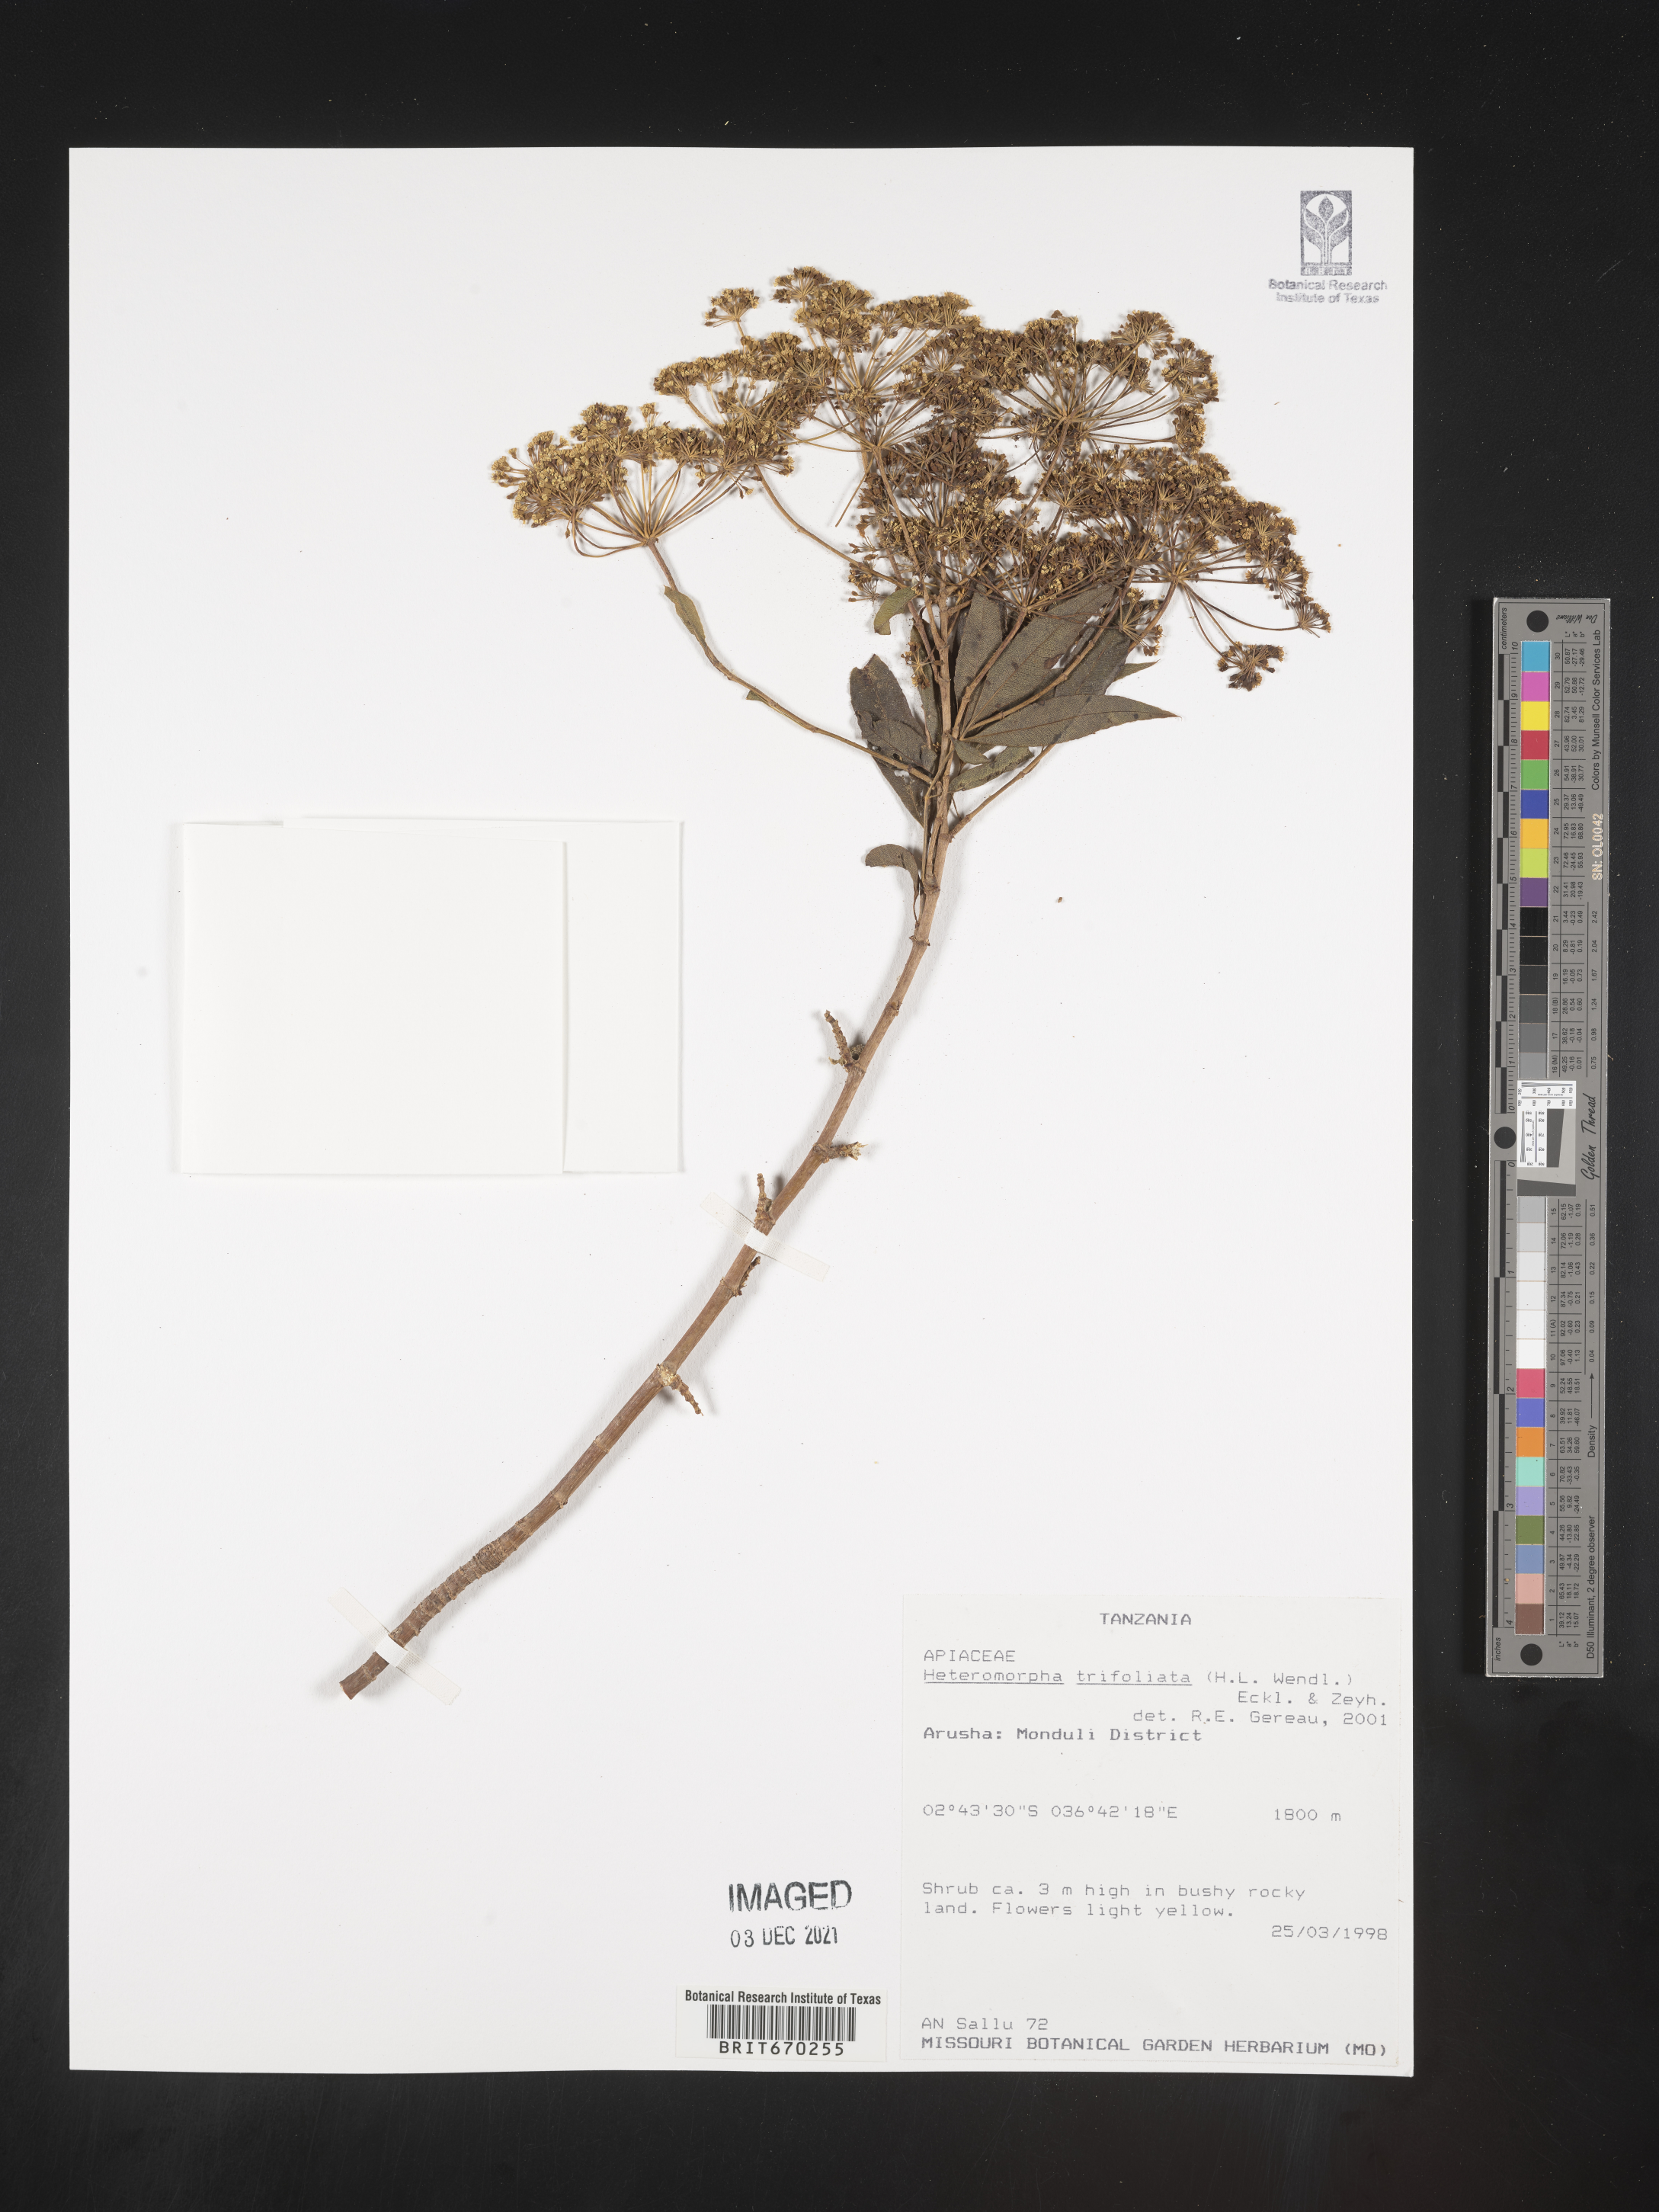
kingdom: Plantae
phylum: Tracheophyta
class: Magnoliopsida
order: Apiales
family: Apiaceae
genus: Heteromorpha
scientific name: Heteromorpha
